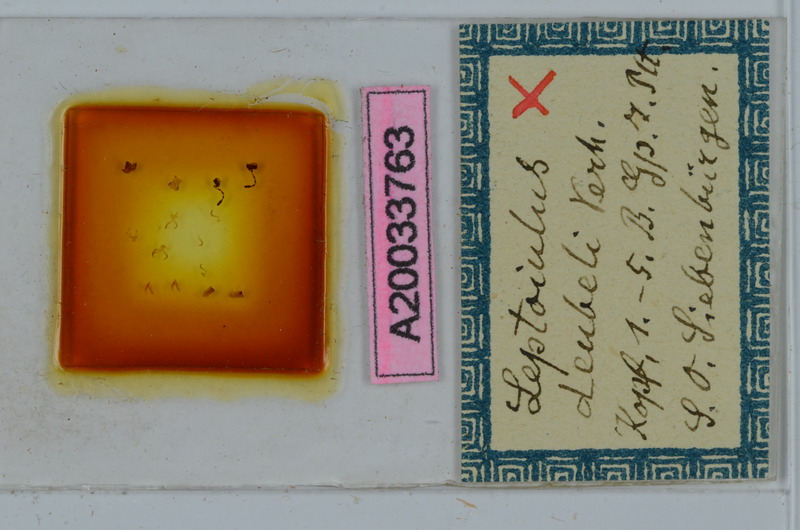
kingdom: Animalia
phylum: Arthropoda
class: Diplopoda
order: Julida
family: Julidae
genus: Leptoiulus
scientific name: Leptoiulus deubeli
